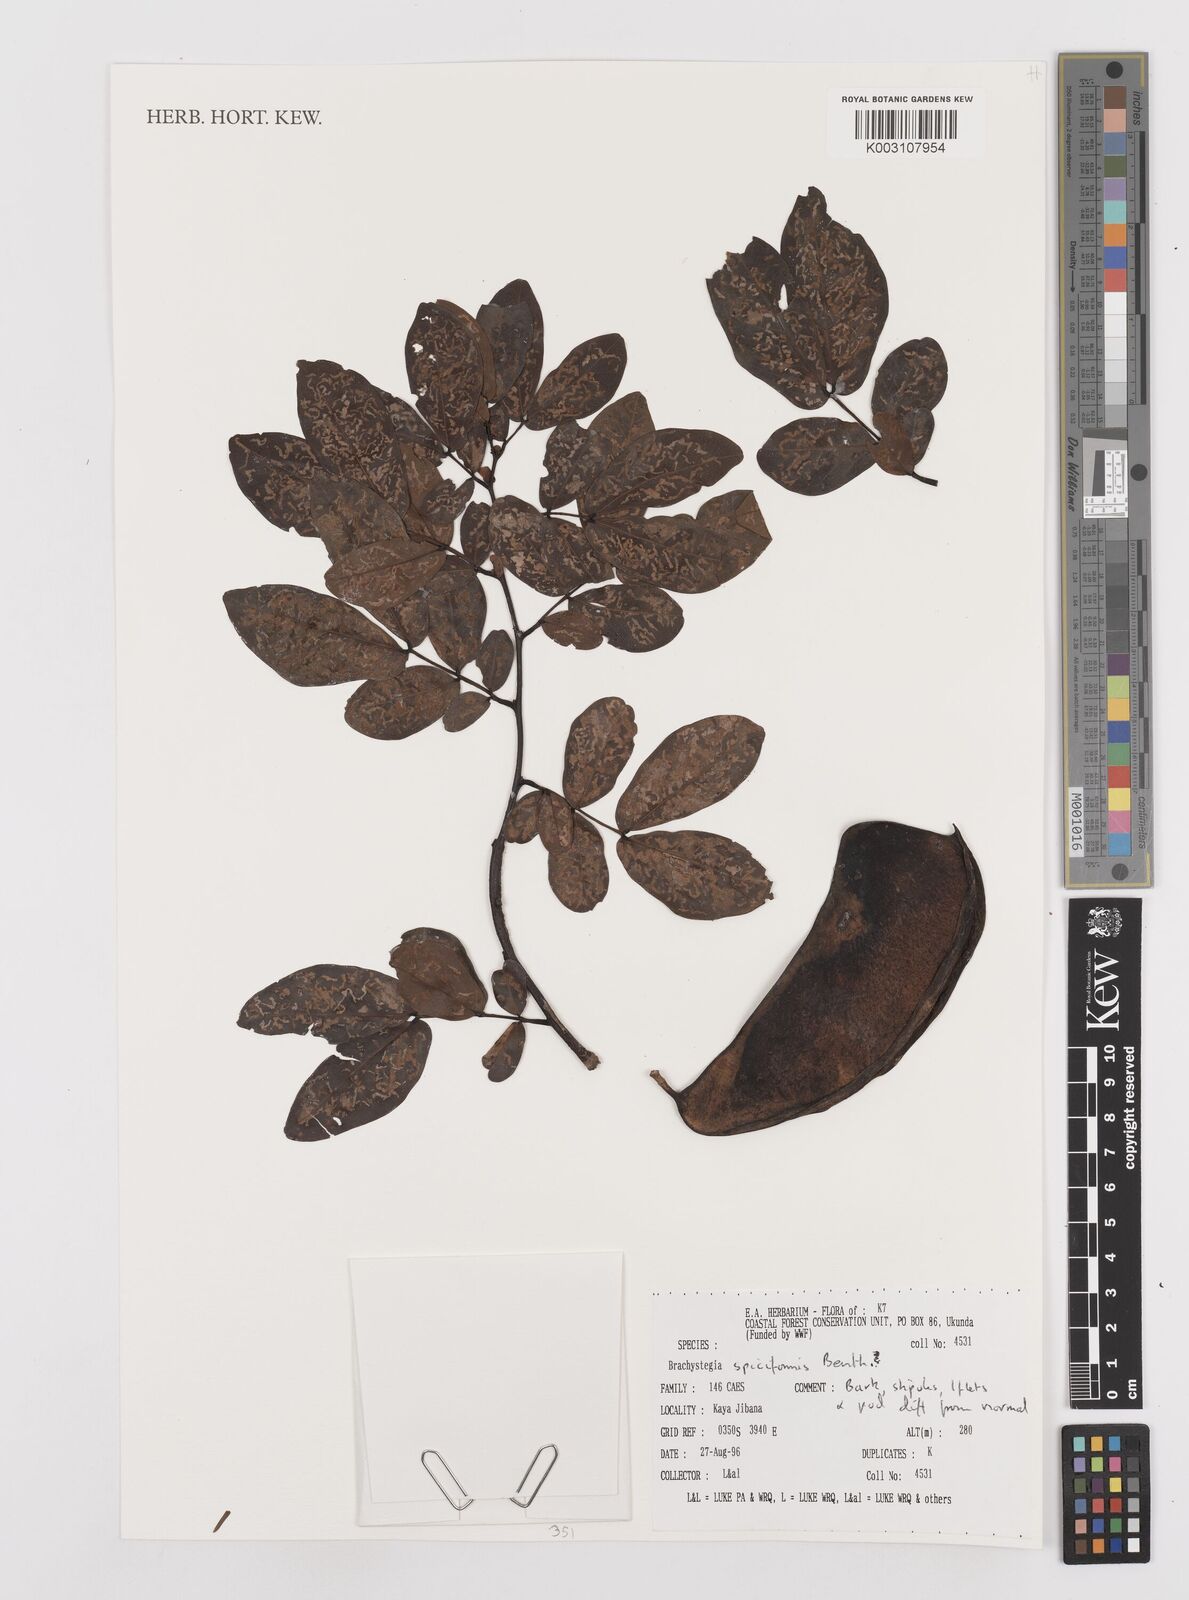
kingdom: Plantae
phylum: Tracheophyta
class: Magnoliopsida
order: Fabales
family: Fabaceae
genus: Brachystegia
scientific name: Brachystegia spiciformis
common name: Zebrawood
